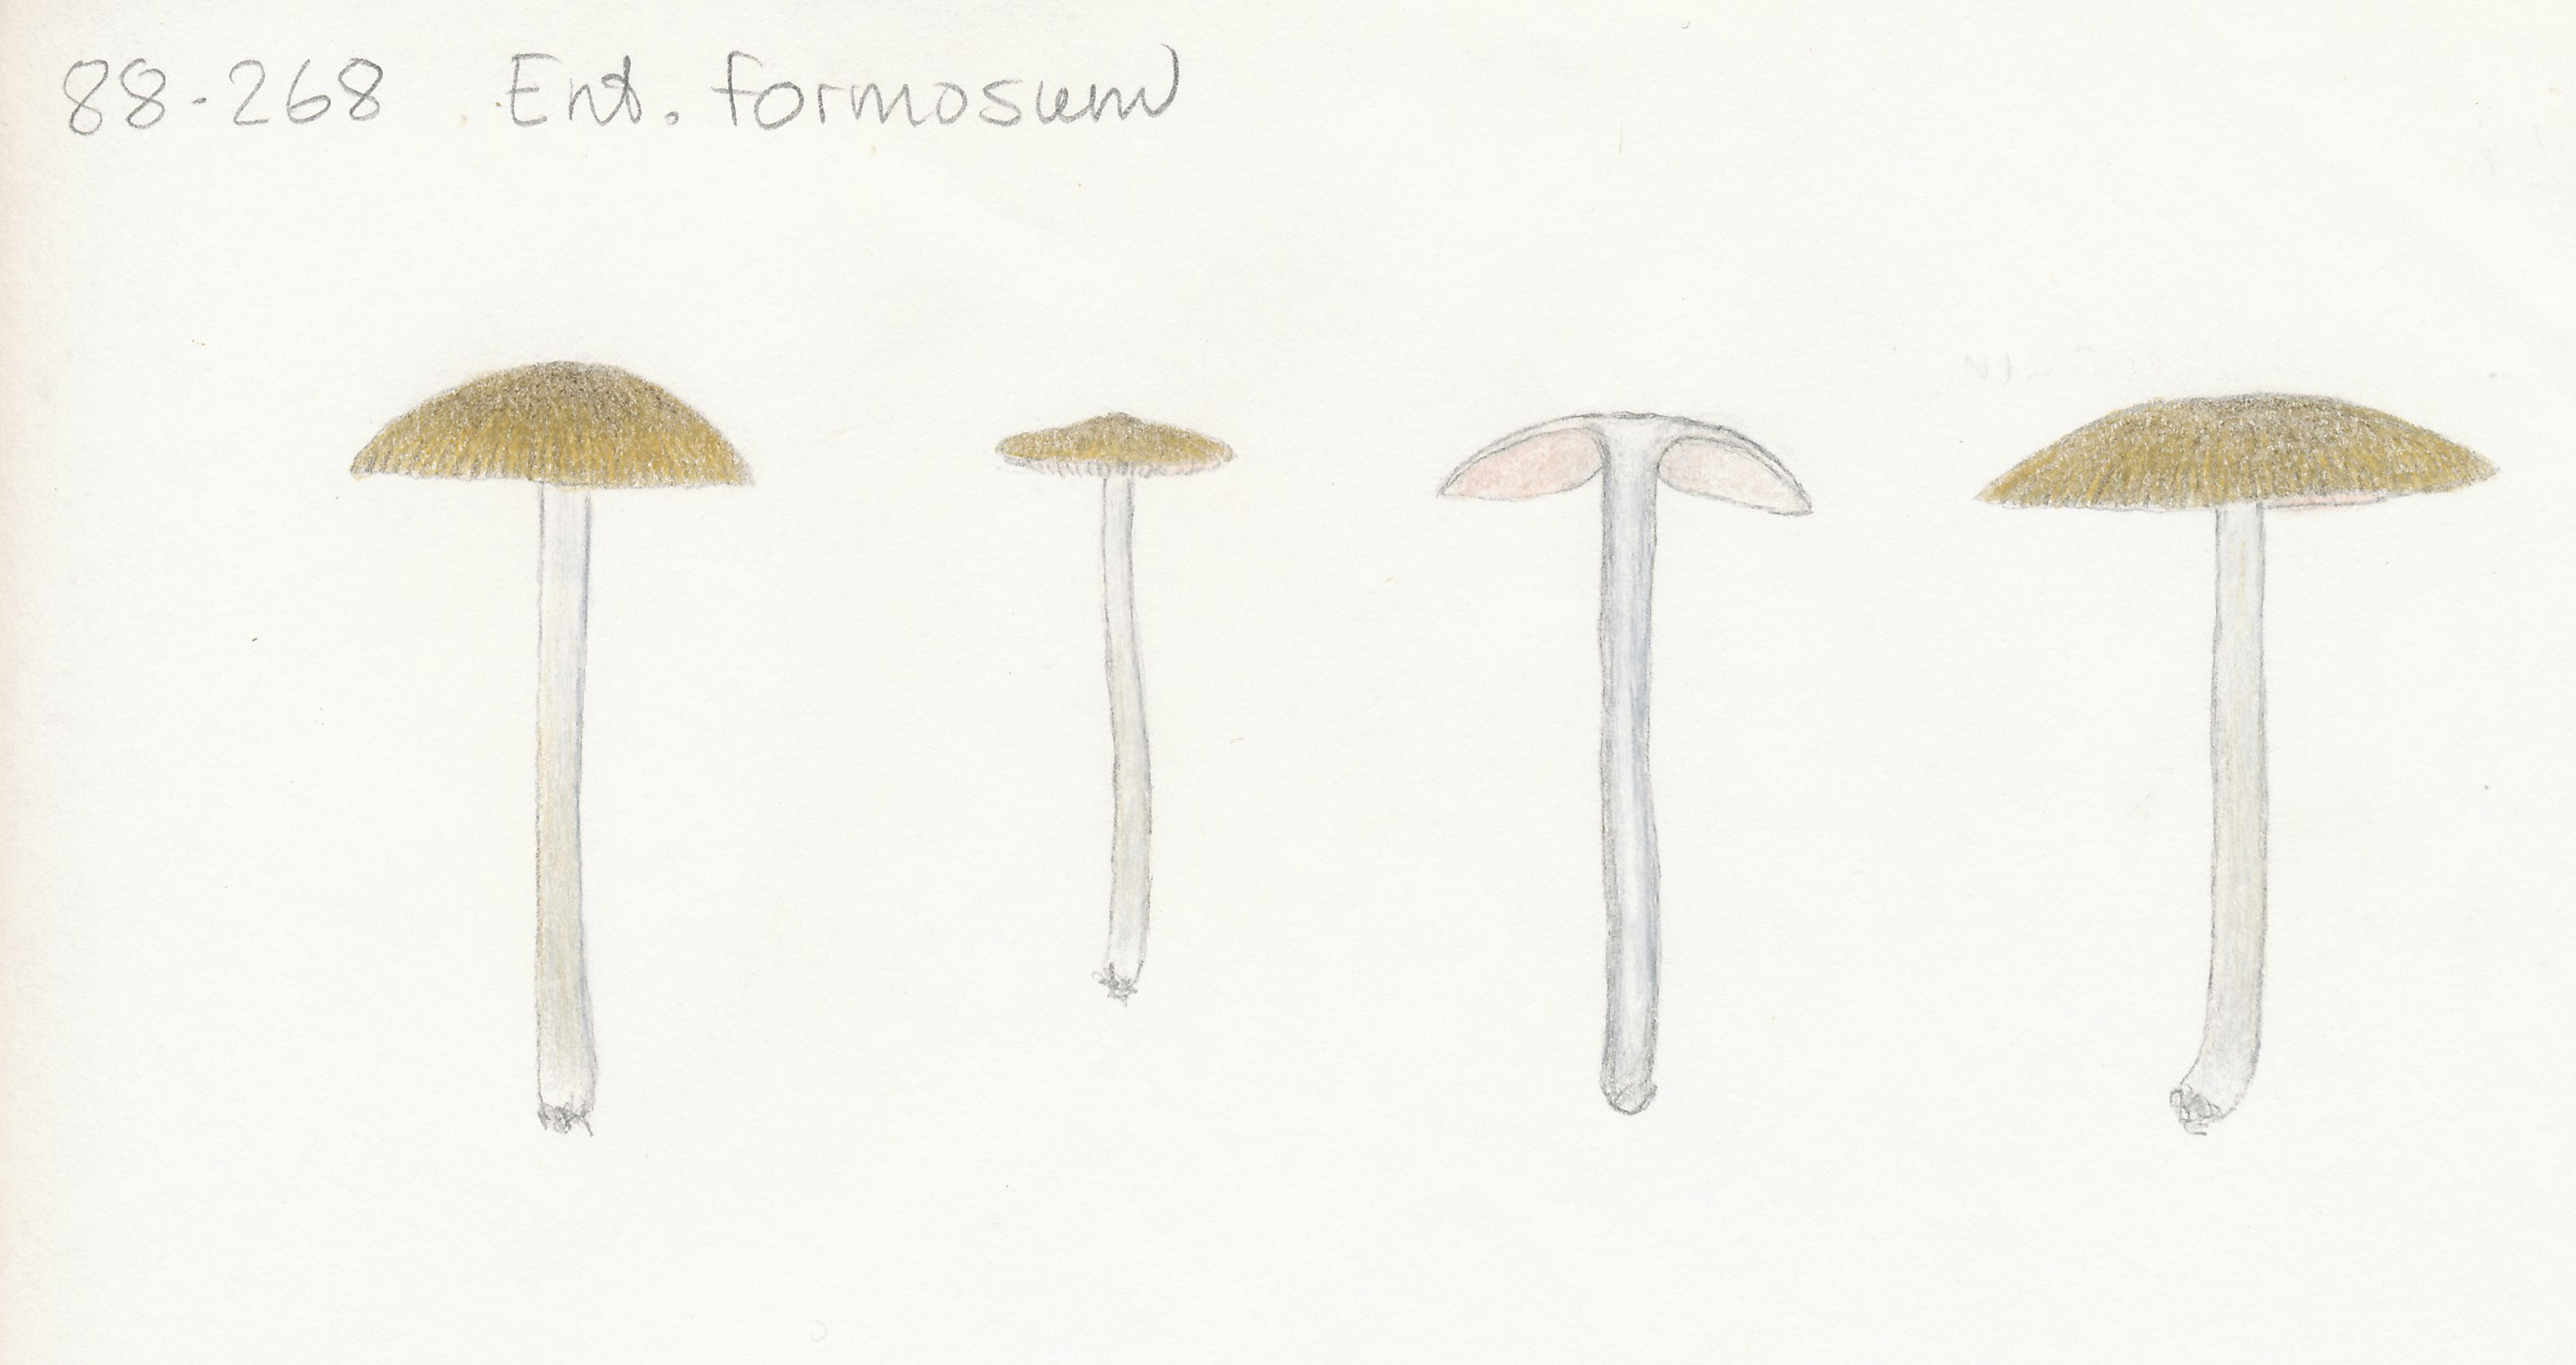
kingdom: Fungi
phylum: Basidiomycota
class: Agaricomycetes
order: Agaricales
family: Entolomataceae
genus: Entoloma
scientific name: Entoloma formosum
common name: brungul rødblad
